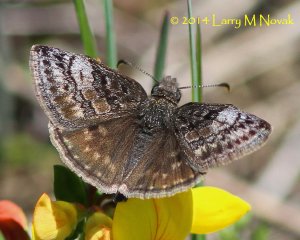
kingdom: Animalia
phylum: Arthropoda
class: Insecta
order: Lepidoptera
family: Hesperiidae
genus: Erynnis
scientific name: Erynnis icelus
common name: Dreamy Duskywing
